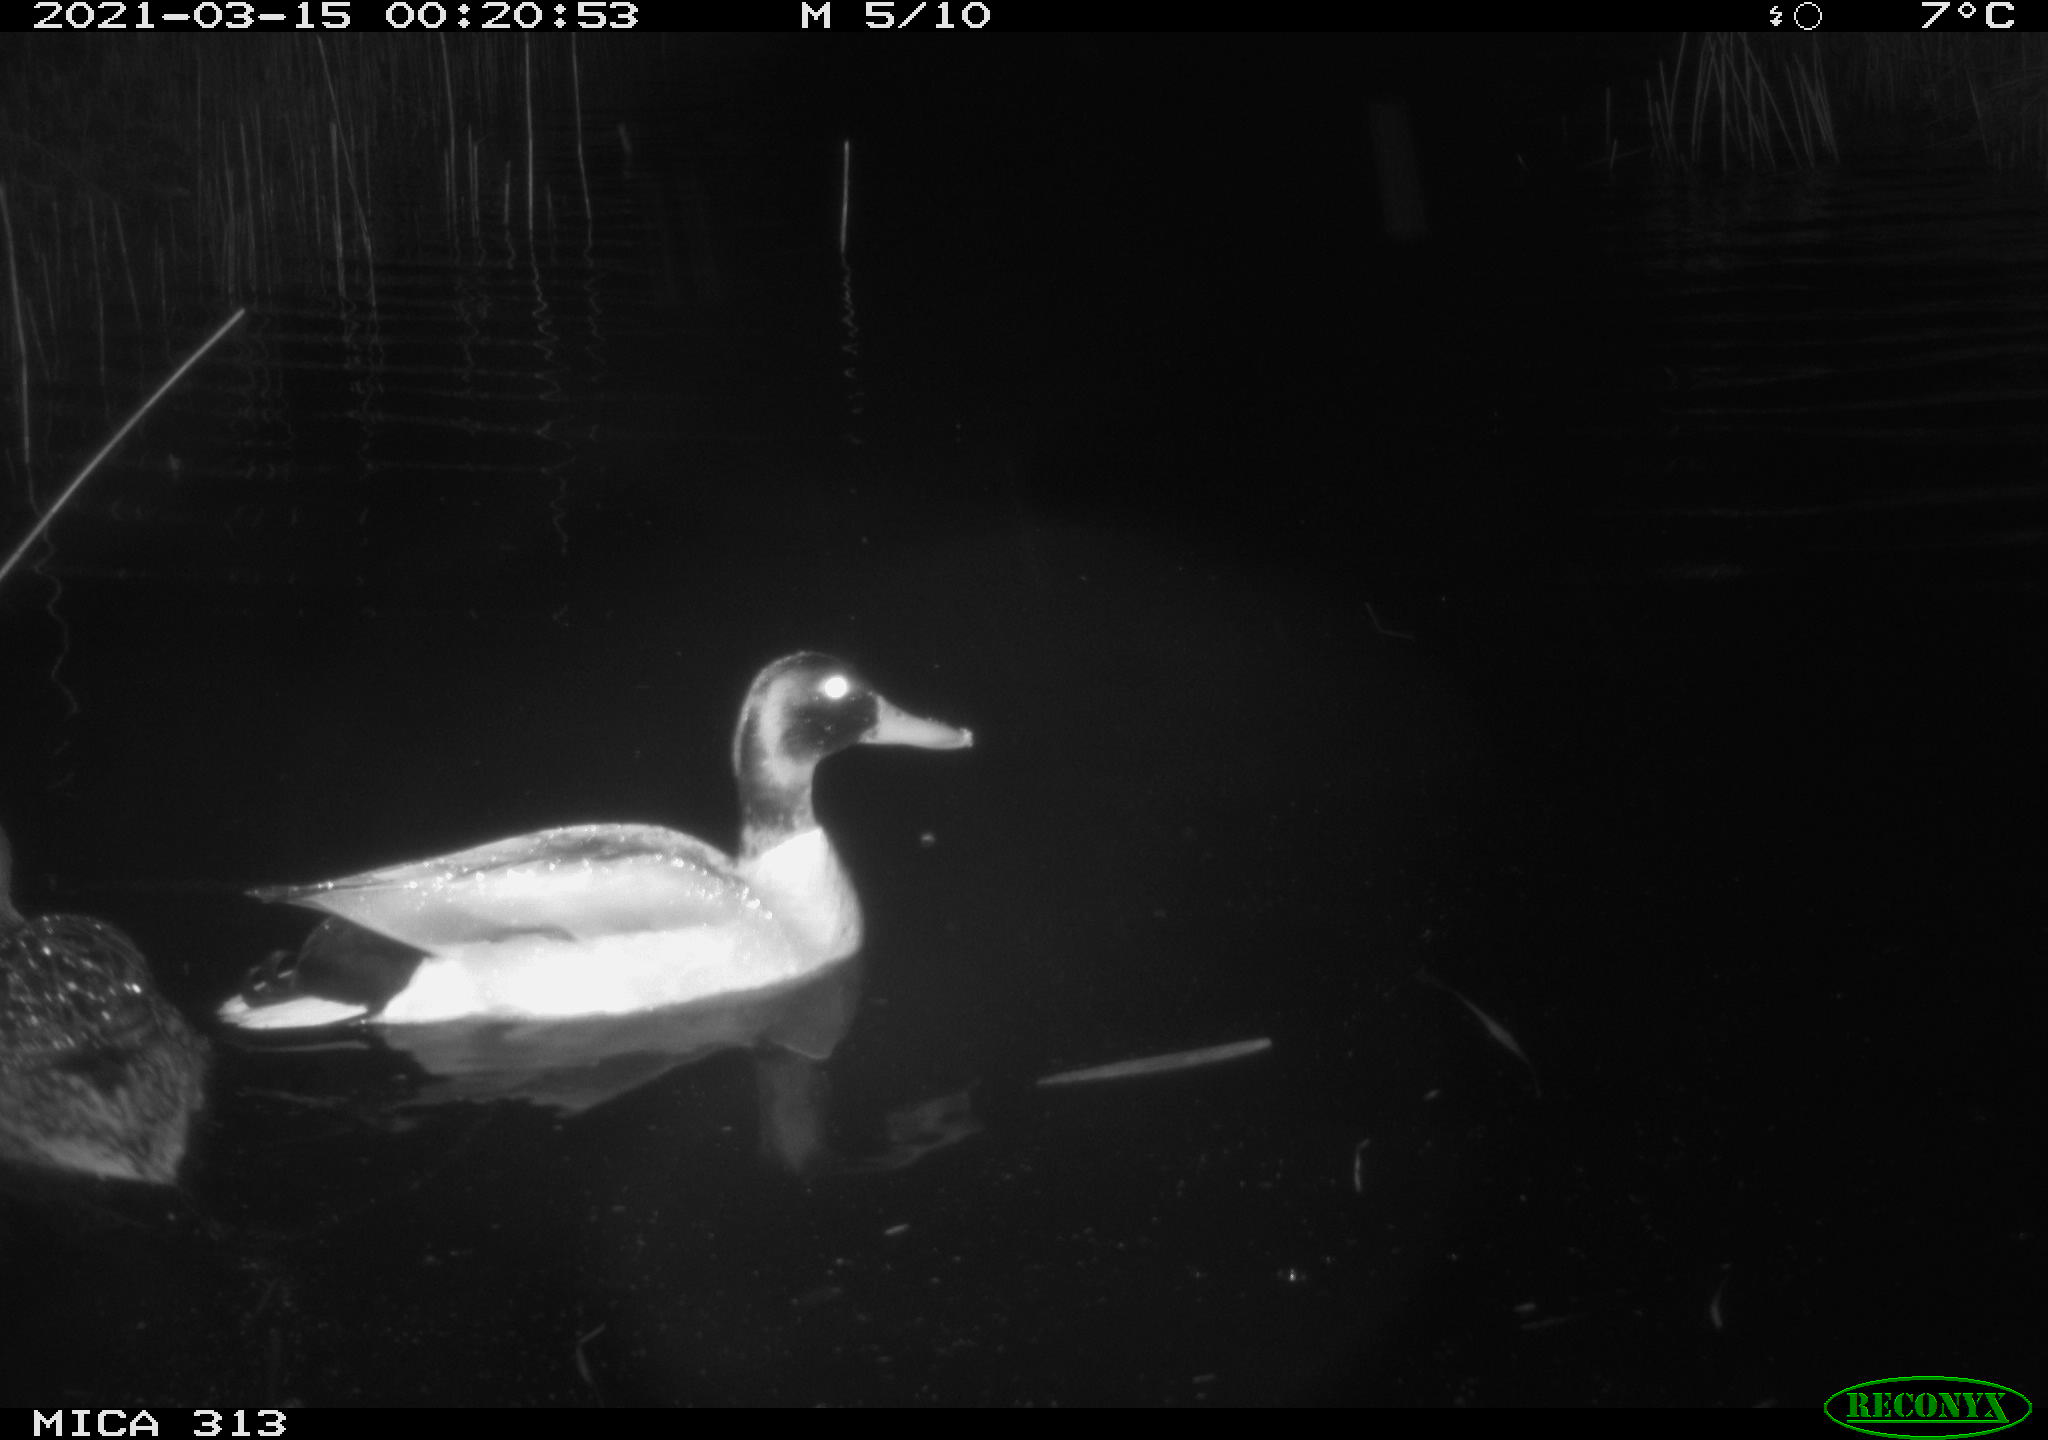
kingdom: Animalia
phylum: Chordata
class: Aves
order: Anseriformes
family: Anatidae
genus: Anas
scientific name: Anas platyrhynchos
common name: Mallard
